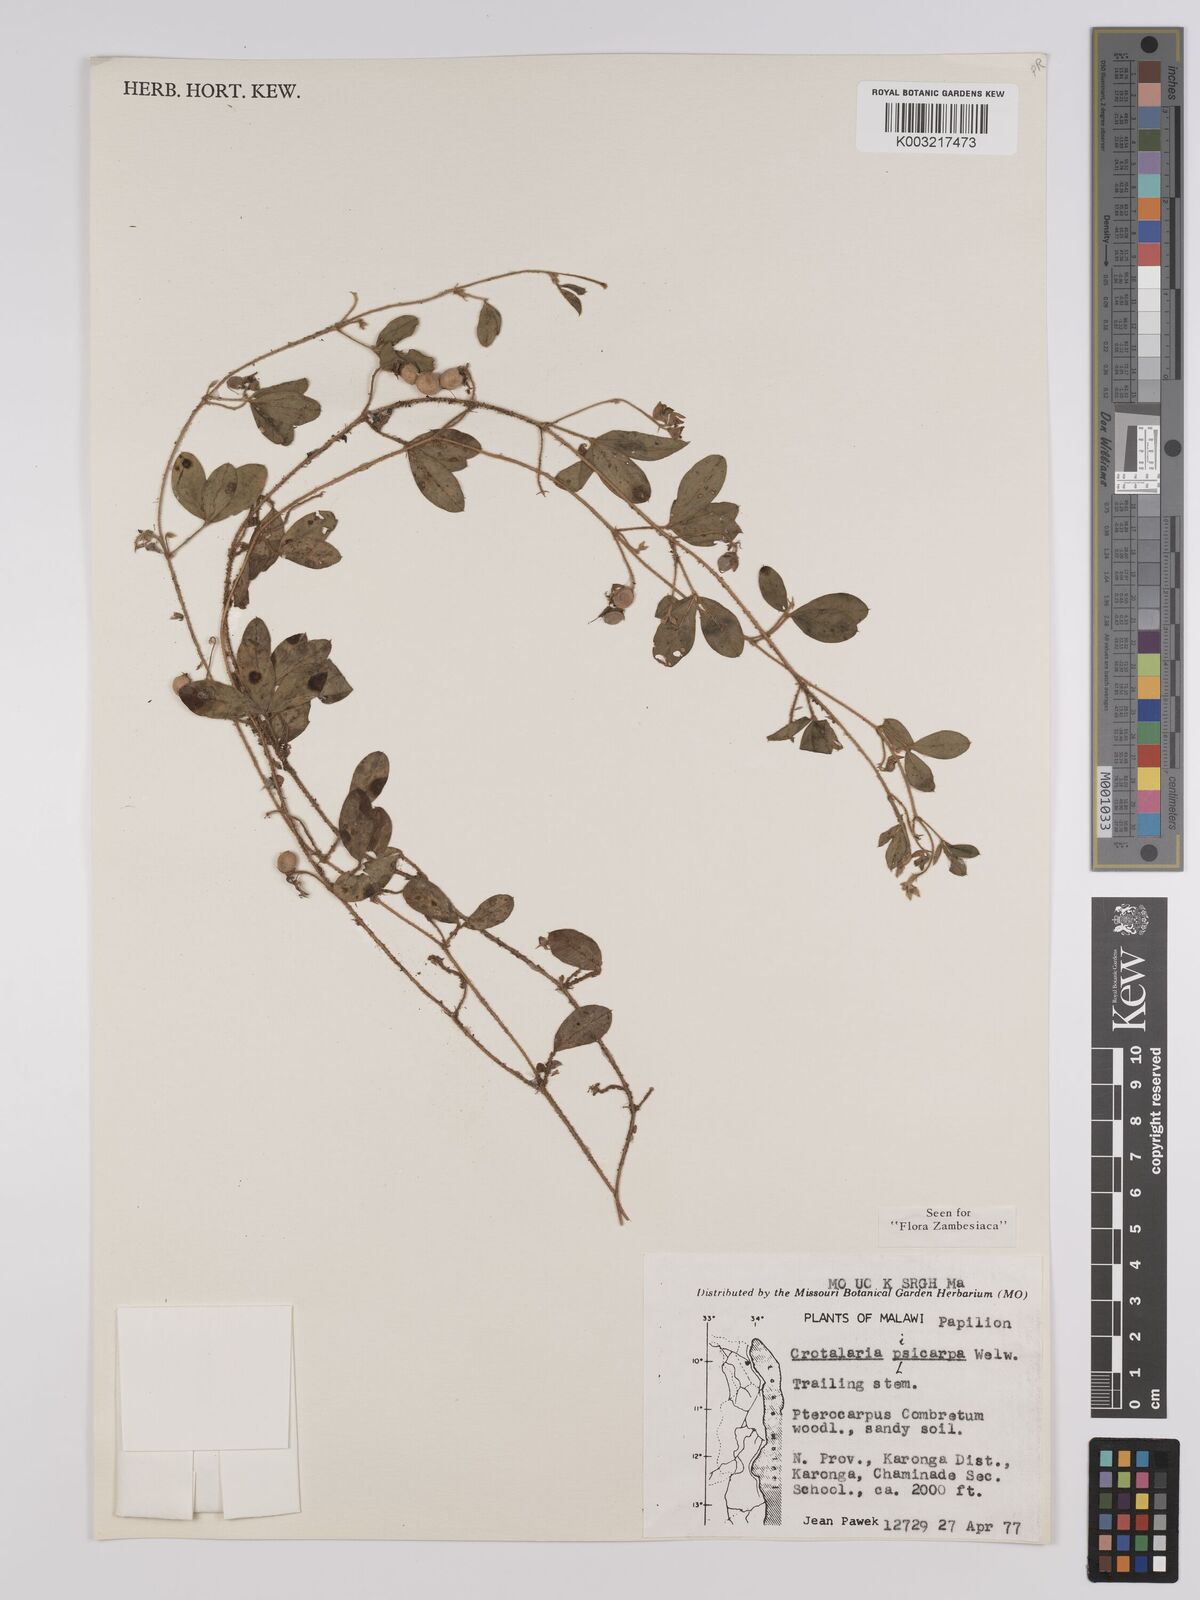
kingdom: Plantae
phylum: Tracheophyta
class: Magnoliopsida
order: Fabales
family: Fabaceae
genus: Crotalaria
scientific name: Crotalaria pisicarpa
